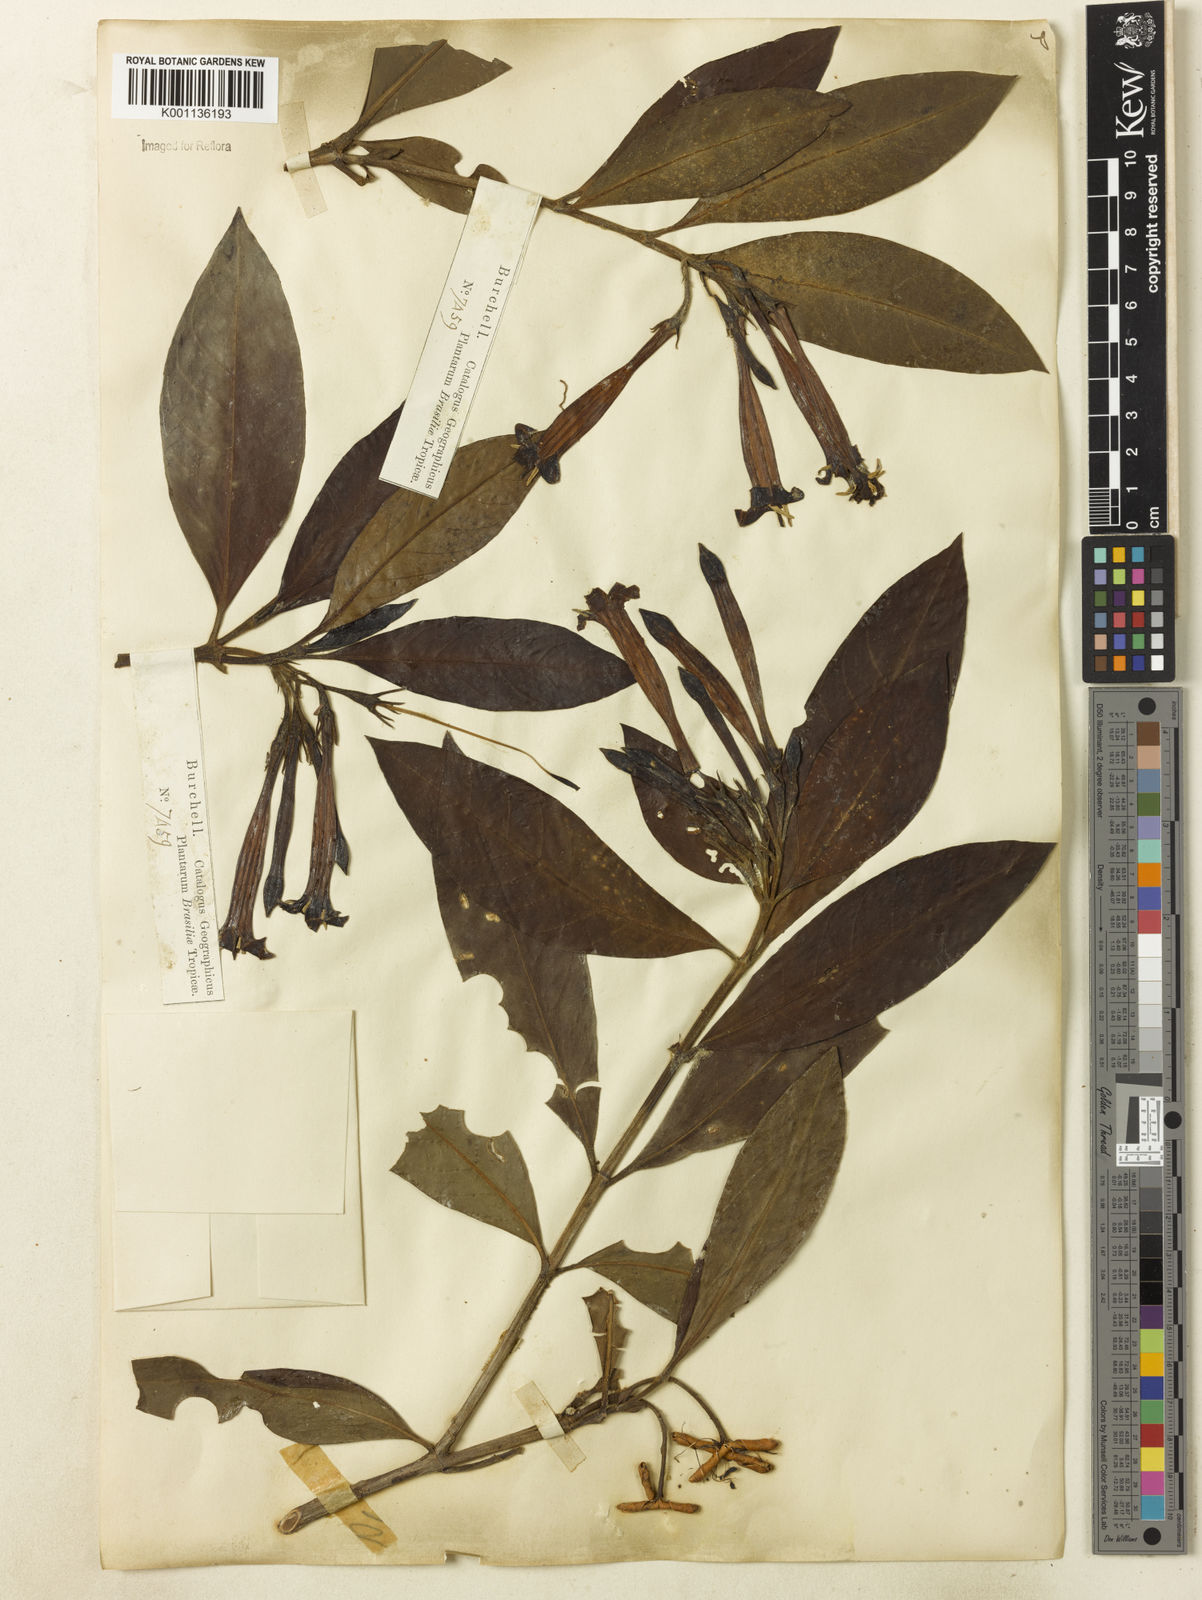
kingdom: Plantae
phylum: Tracheophyta
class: Magnoliopsida
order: Gentianales
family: Rubiaceae
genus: Augusta
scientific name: Augusta longifolia
